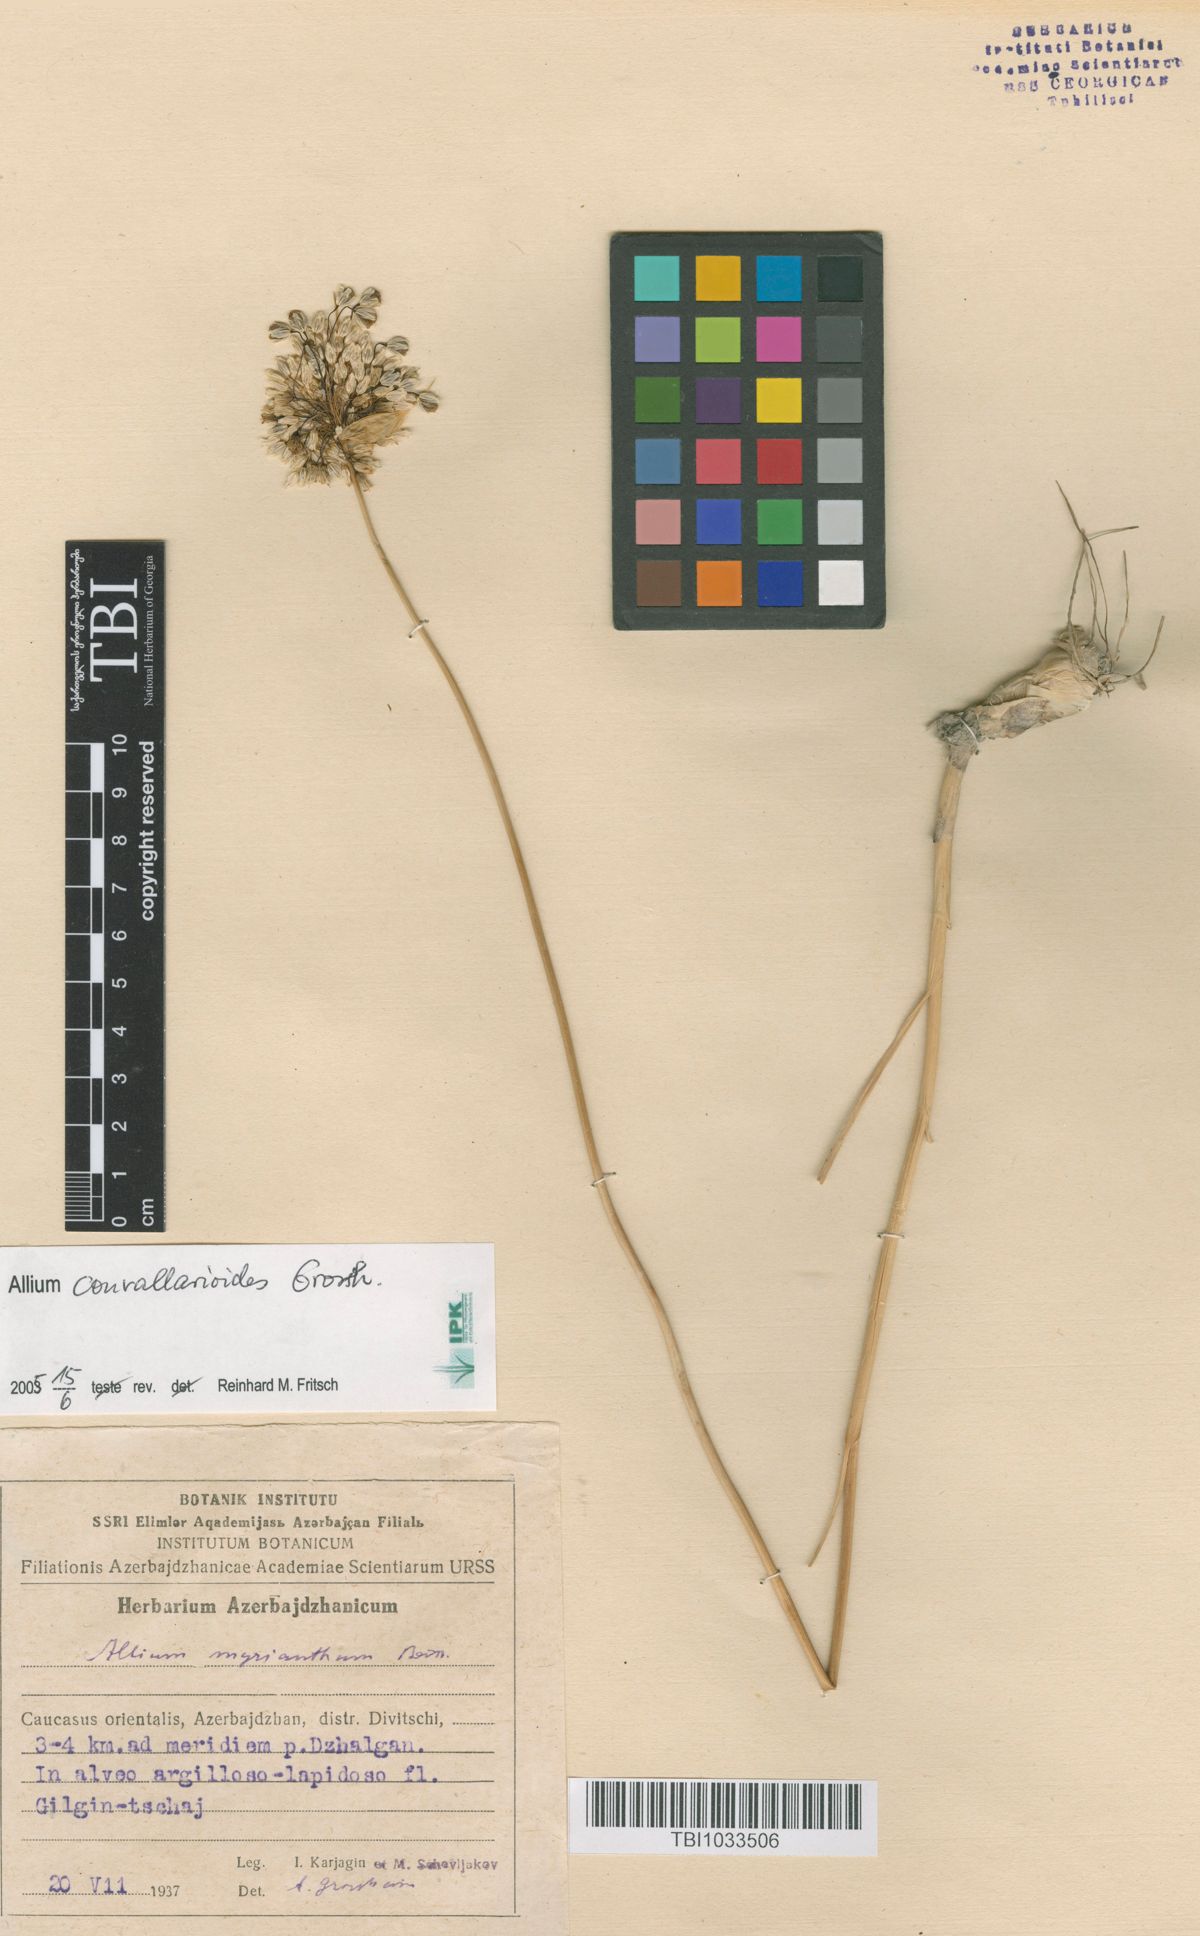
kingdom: Plantae
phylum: Tracheophyta
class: Liliopsida
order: Asparagales
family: Amaryllidaceae
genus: Allium
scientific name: Allium myrianthum
